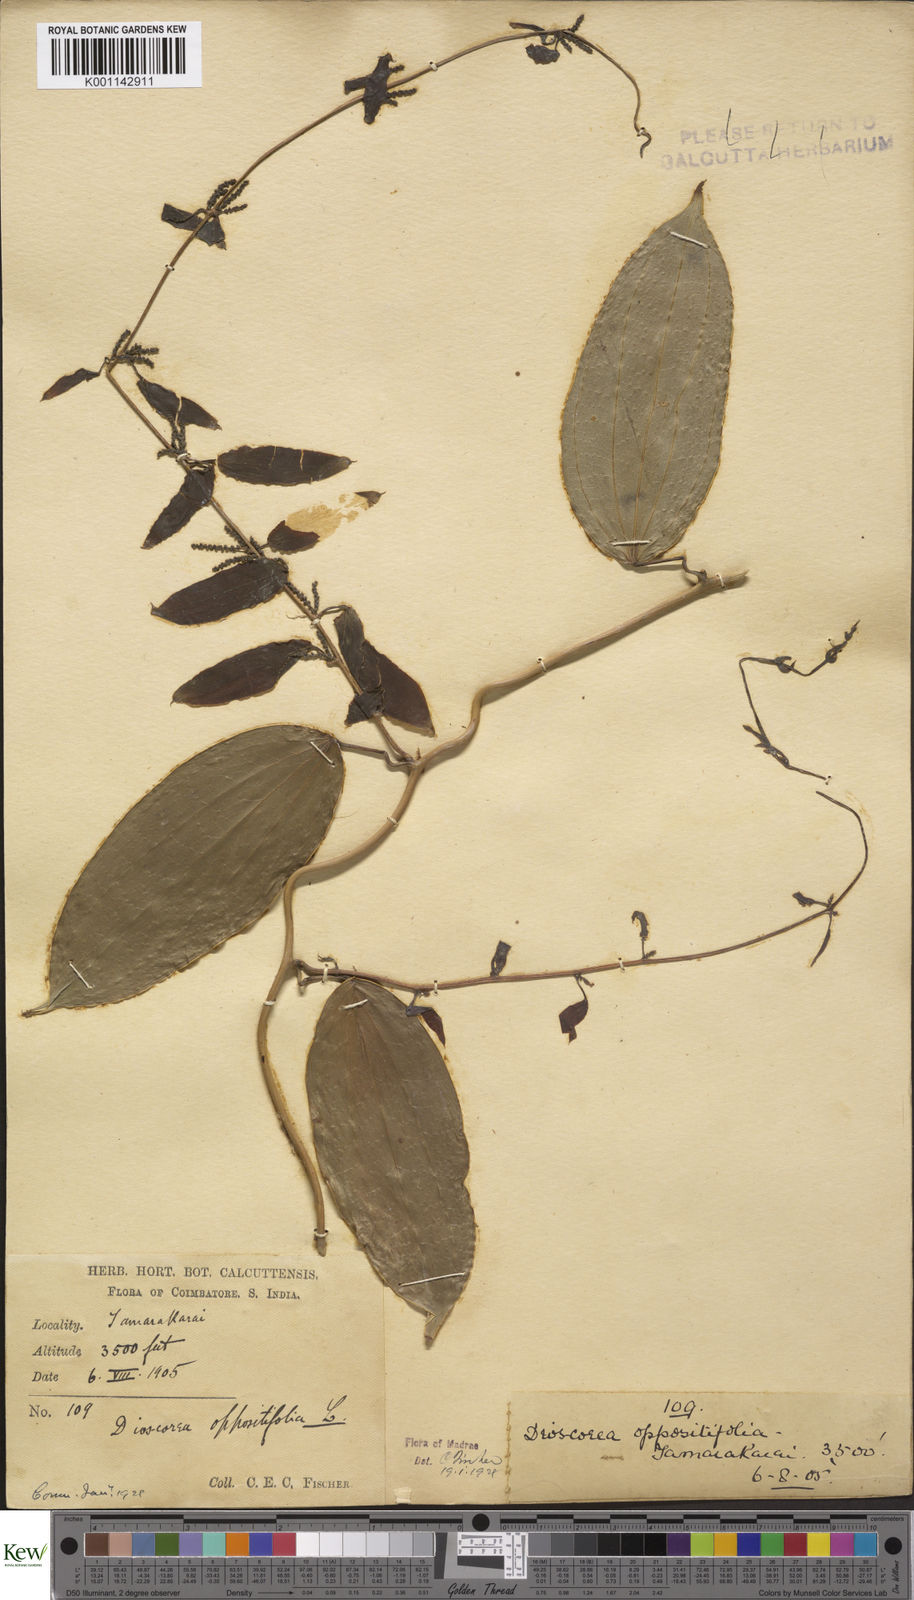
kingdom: Plantae
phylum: Tracheophyta
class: Liliopsida
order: Dioscoreales
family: Dioscoreaceae
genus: Dioscorea
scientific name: Dioscorea oppositifolia
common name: Chinese yam
